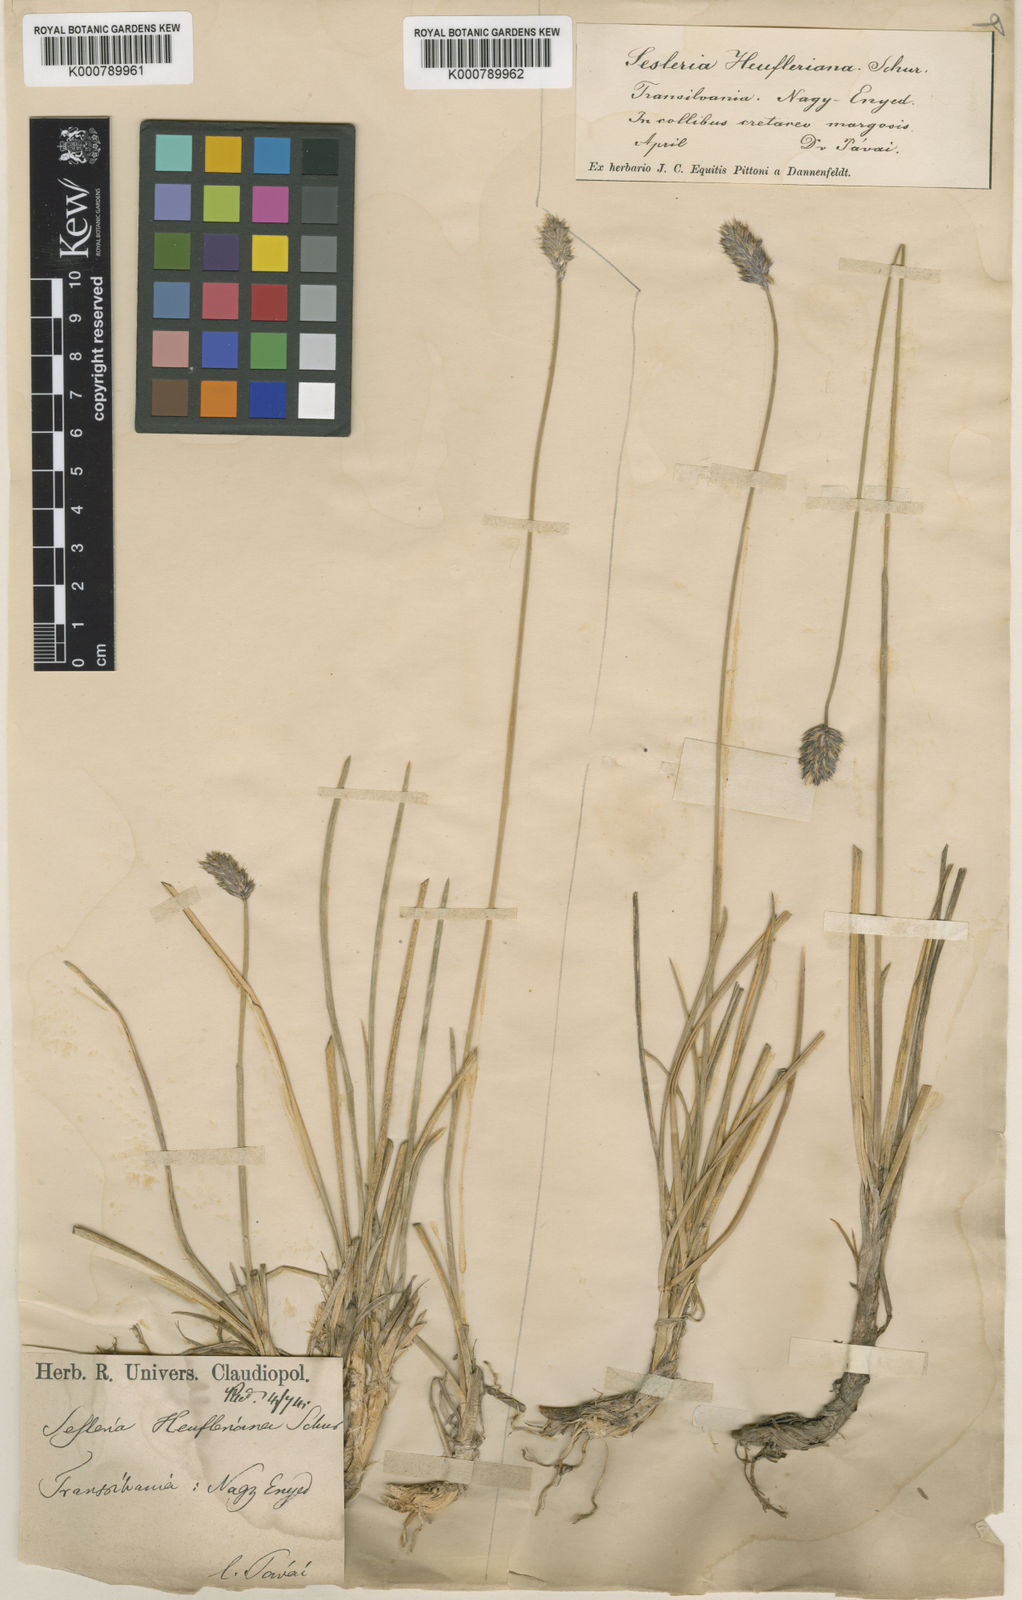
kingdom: Plantae
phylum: Tracheophyta
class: Liliopsida
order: Poales
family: Poaceae
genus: Sesleria
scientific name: Sesleria heufleriana
